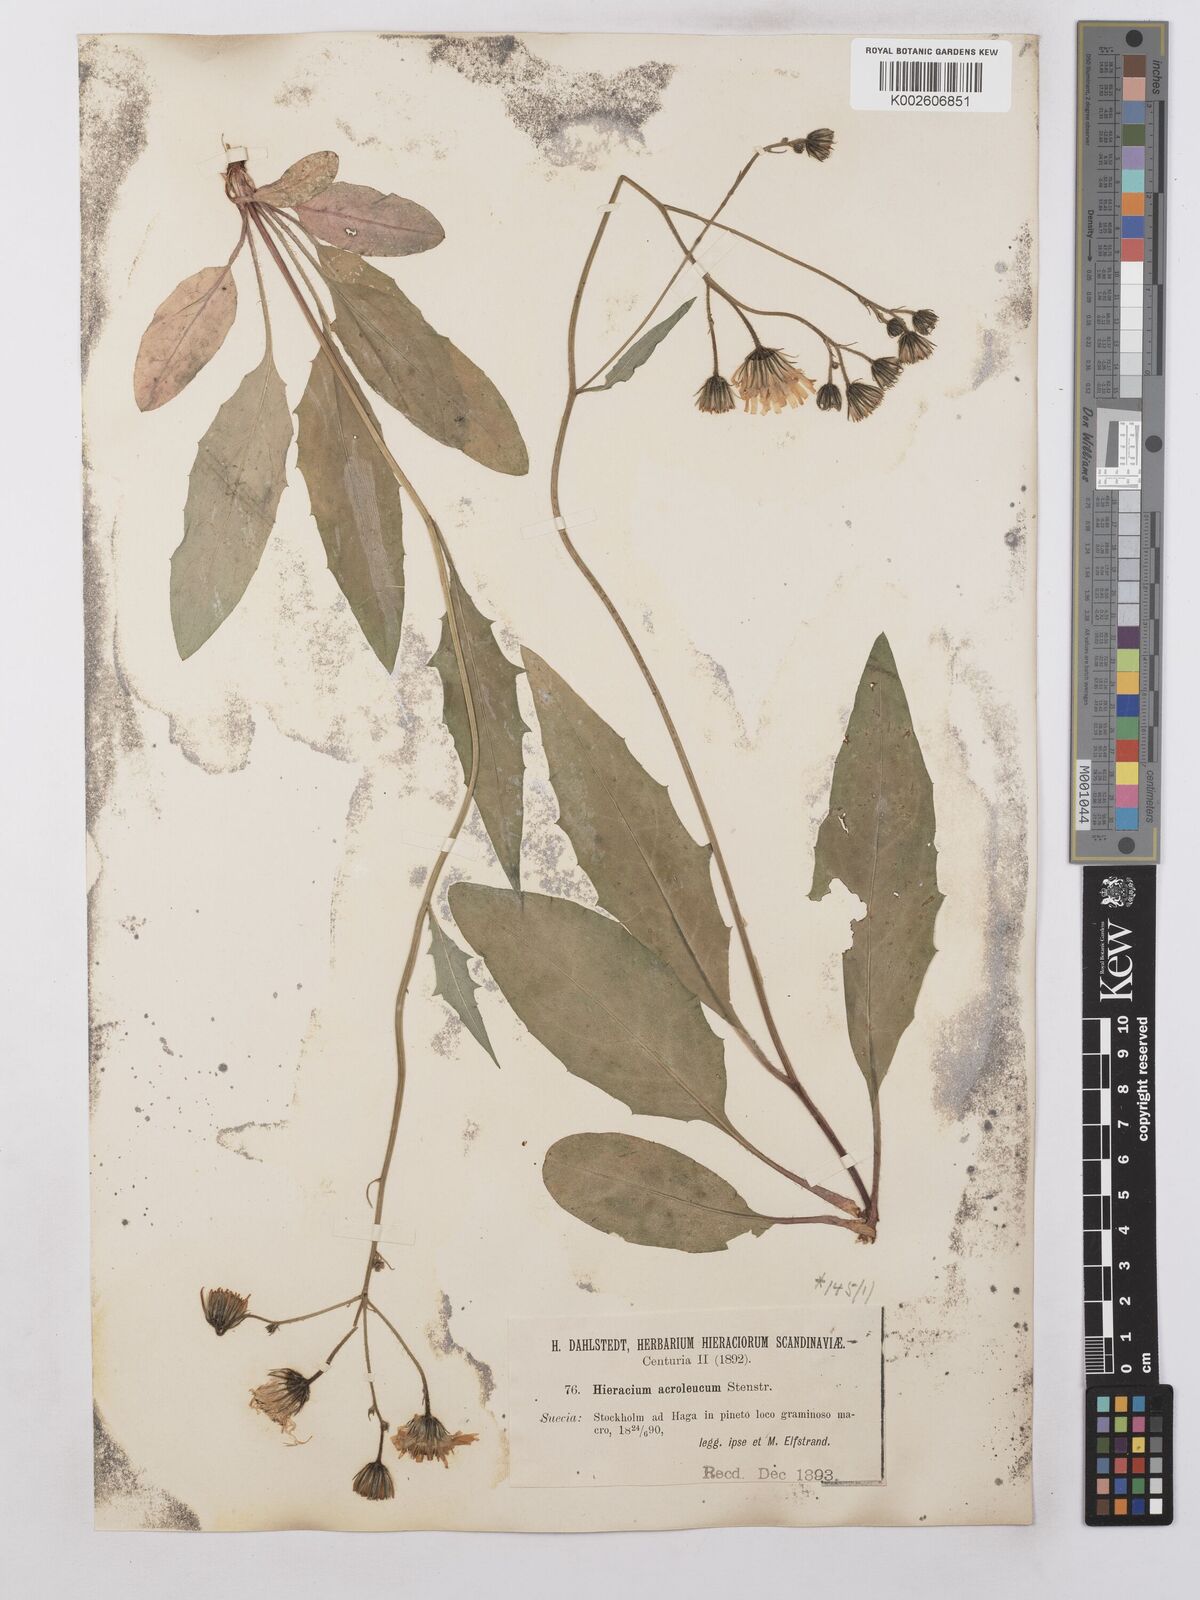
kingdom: Plantae
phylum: Tracheophyta
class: Magnoliopsida
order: Asterales
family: Asteraceae
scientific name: Asteraceae
